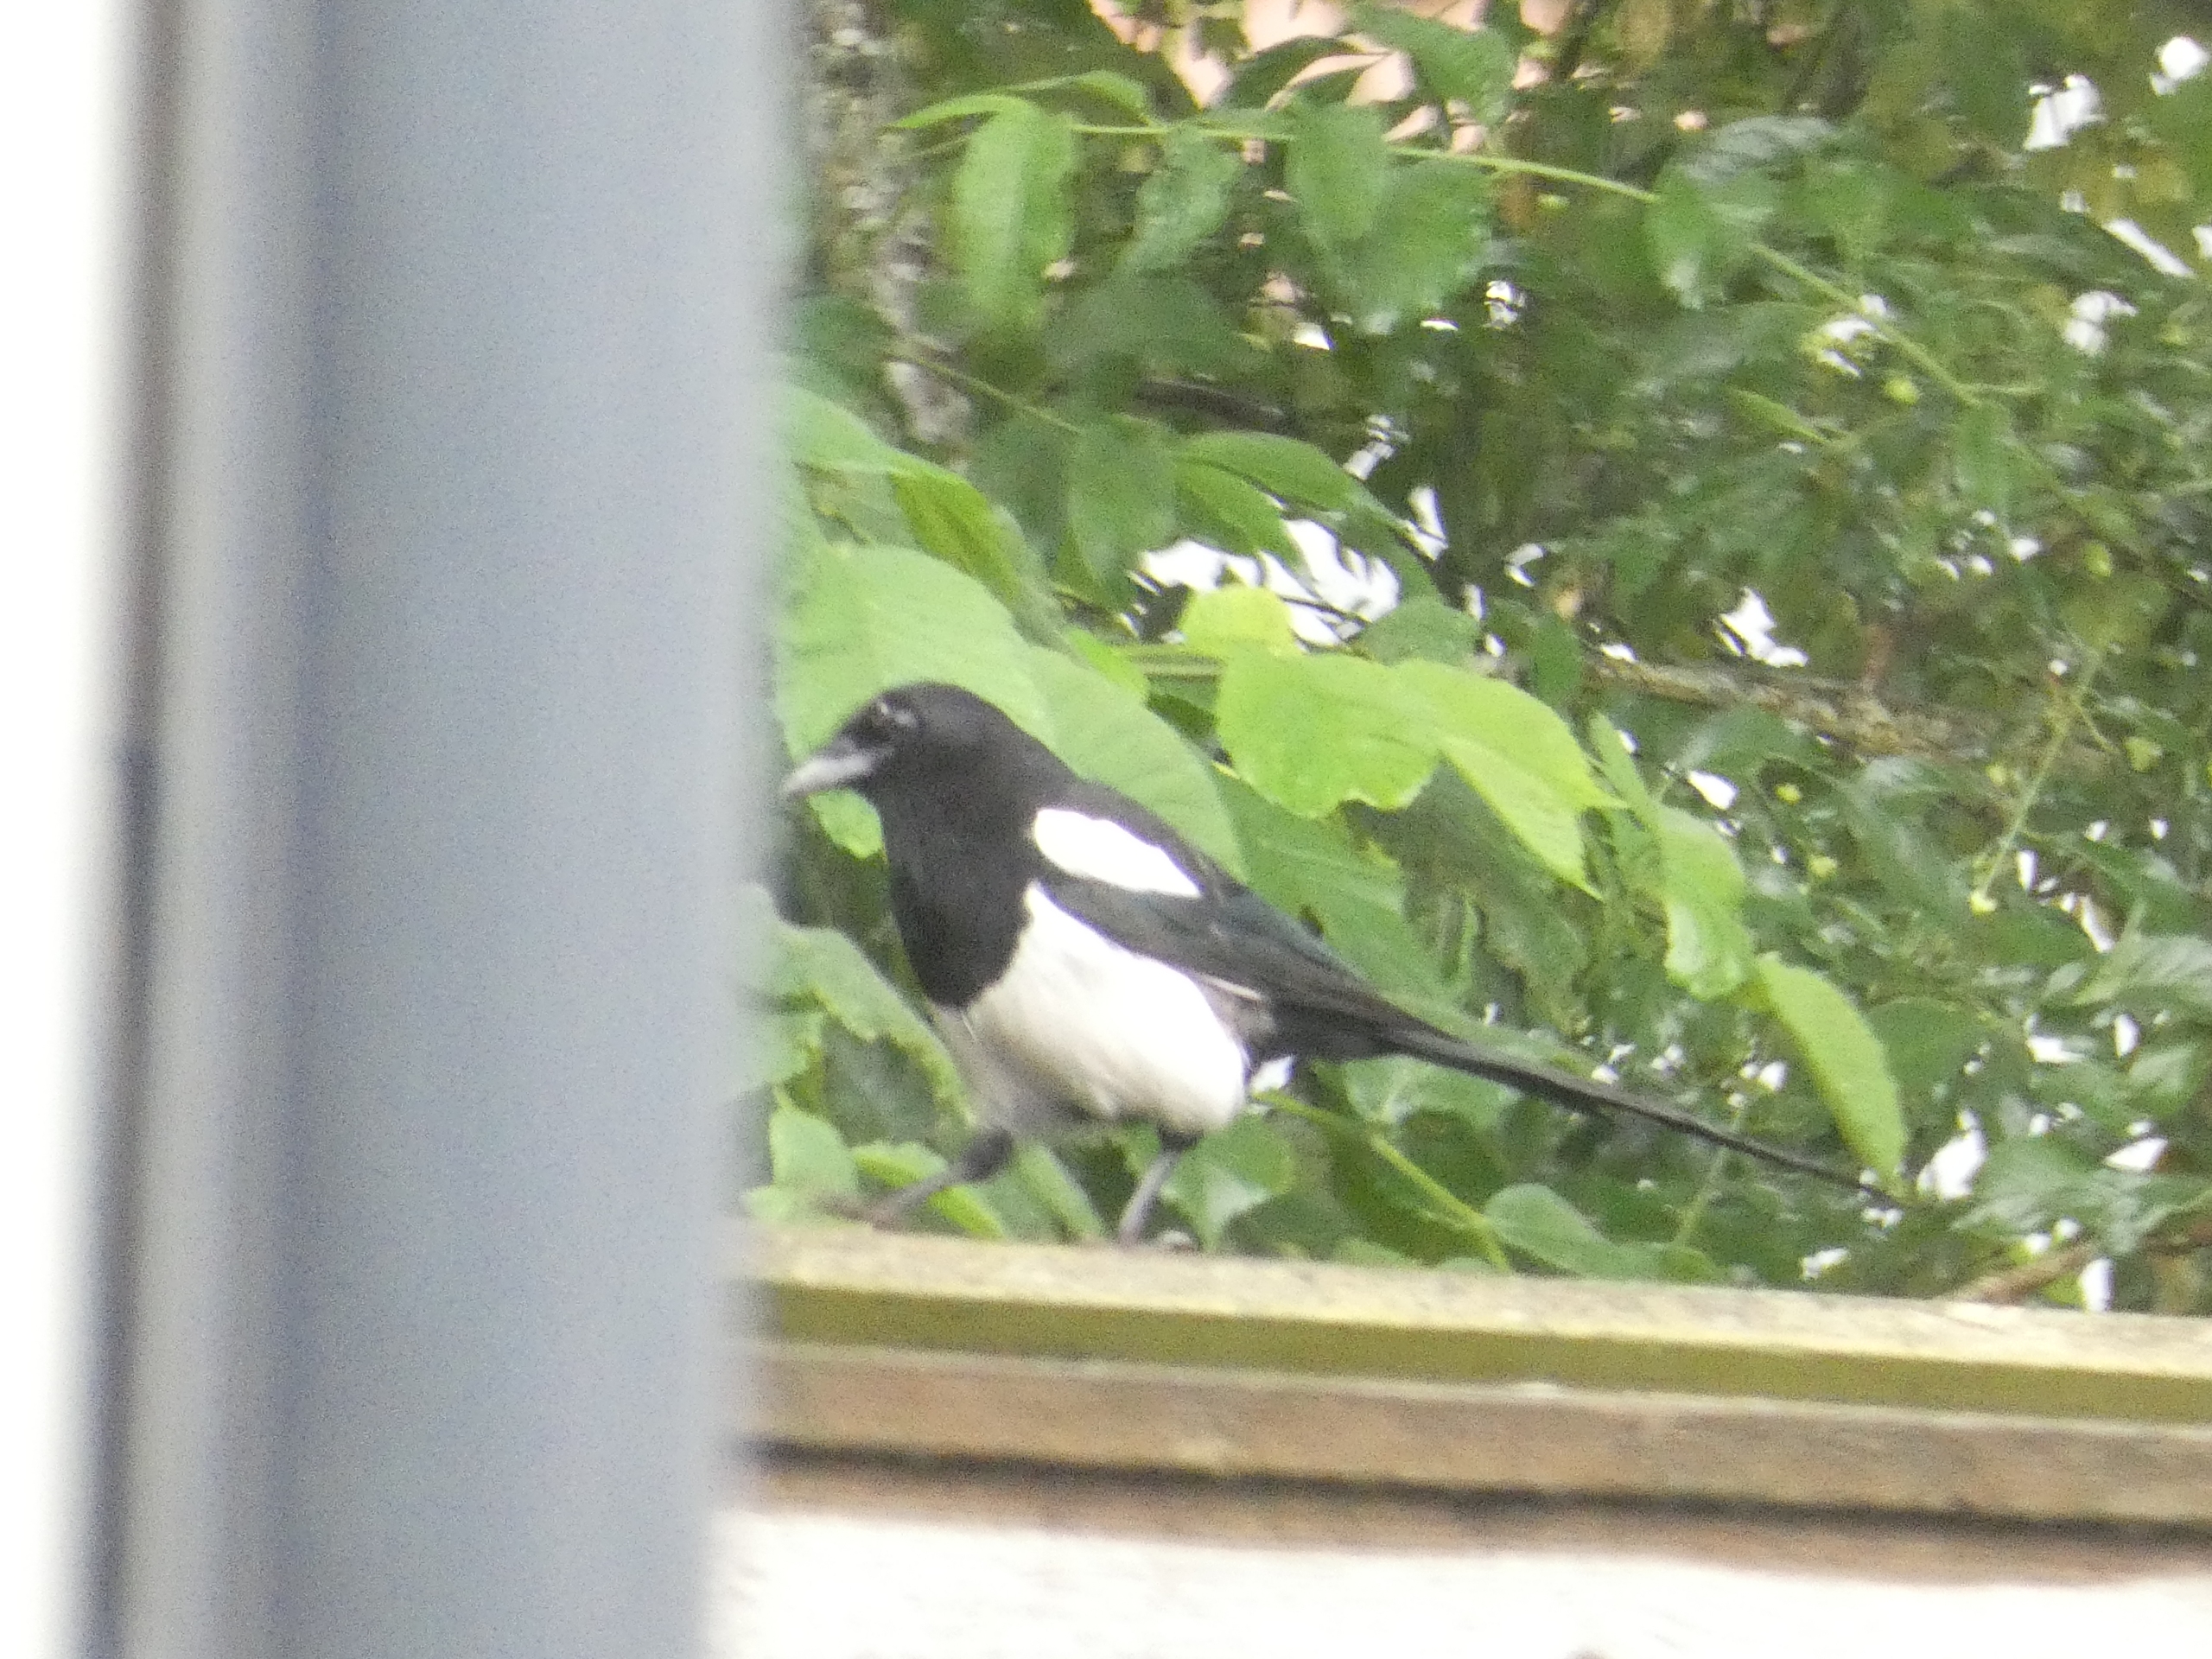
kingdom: Animalia
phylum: Chordata
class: Aves
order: Passeriformes
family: Corvidae
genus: Pica
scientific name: Pica pica
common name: Husskade
